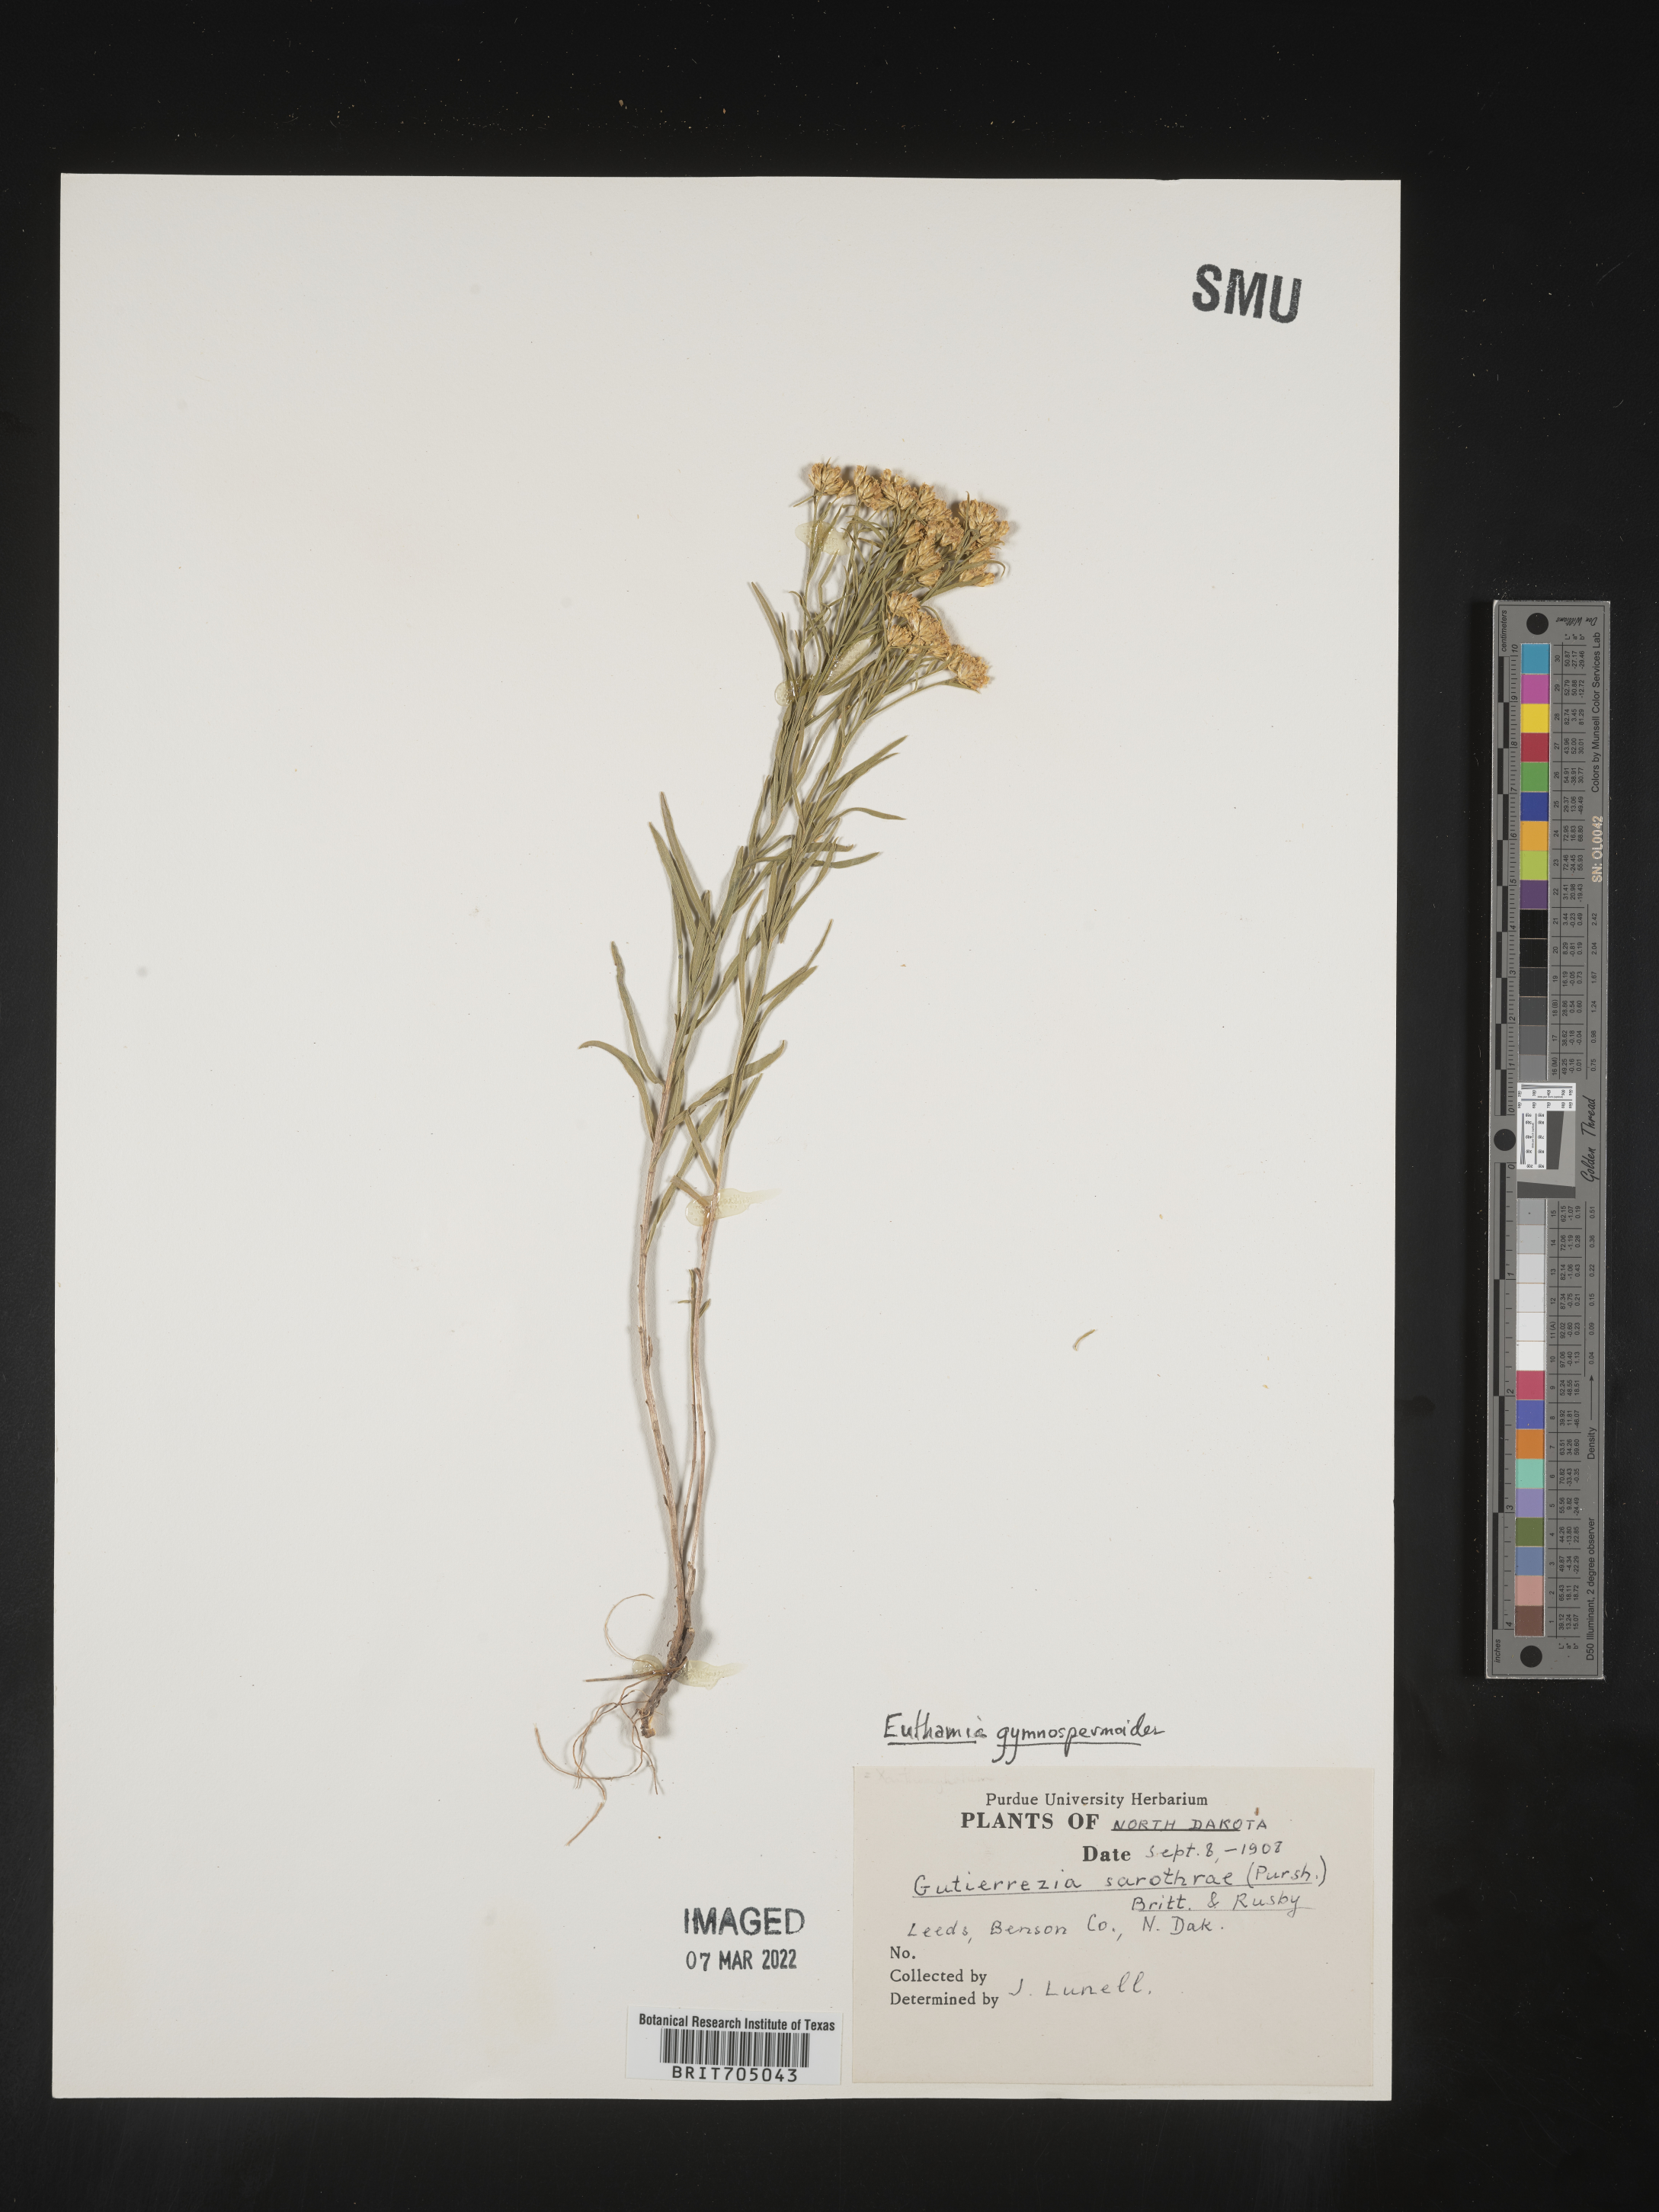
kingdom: Plantae
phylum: Tracheophyta
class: Magnoliopsida
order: Asterales
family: Asteraceae
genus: Euthamia
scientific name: Euthamia gymnospermoides
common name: Great plains goldentop
